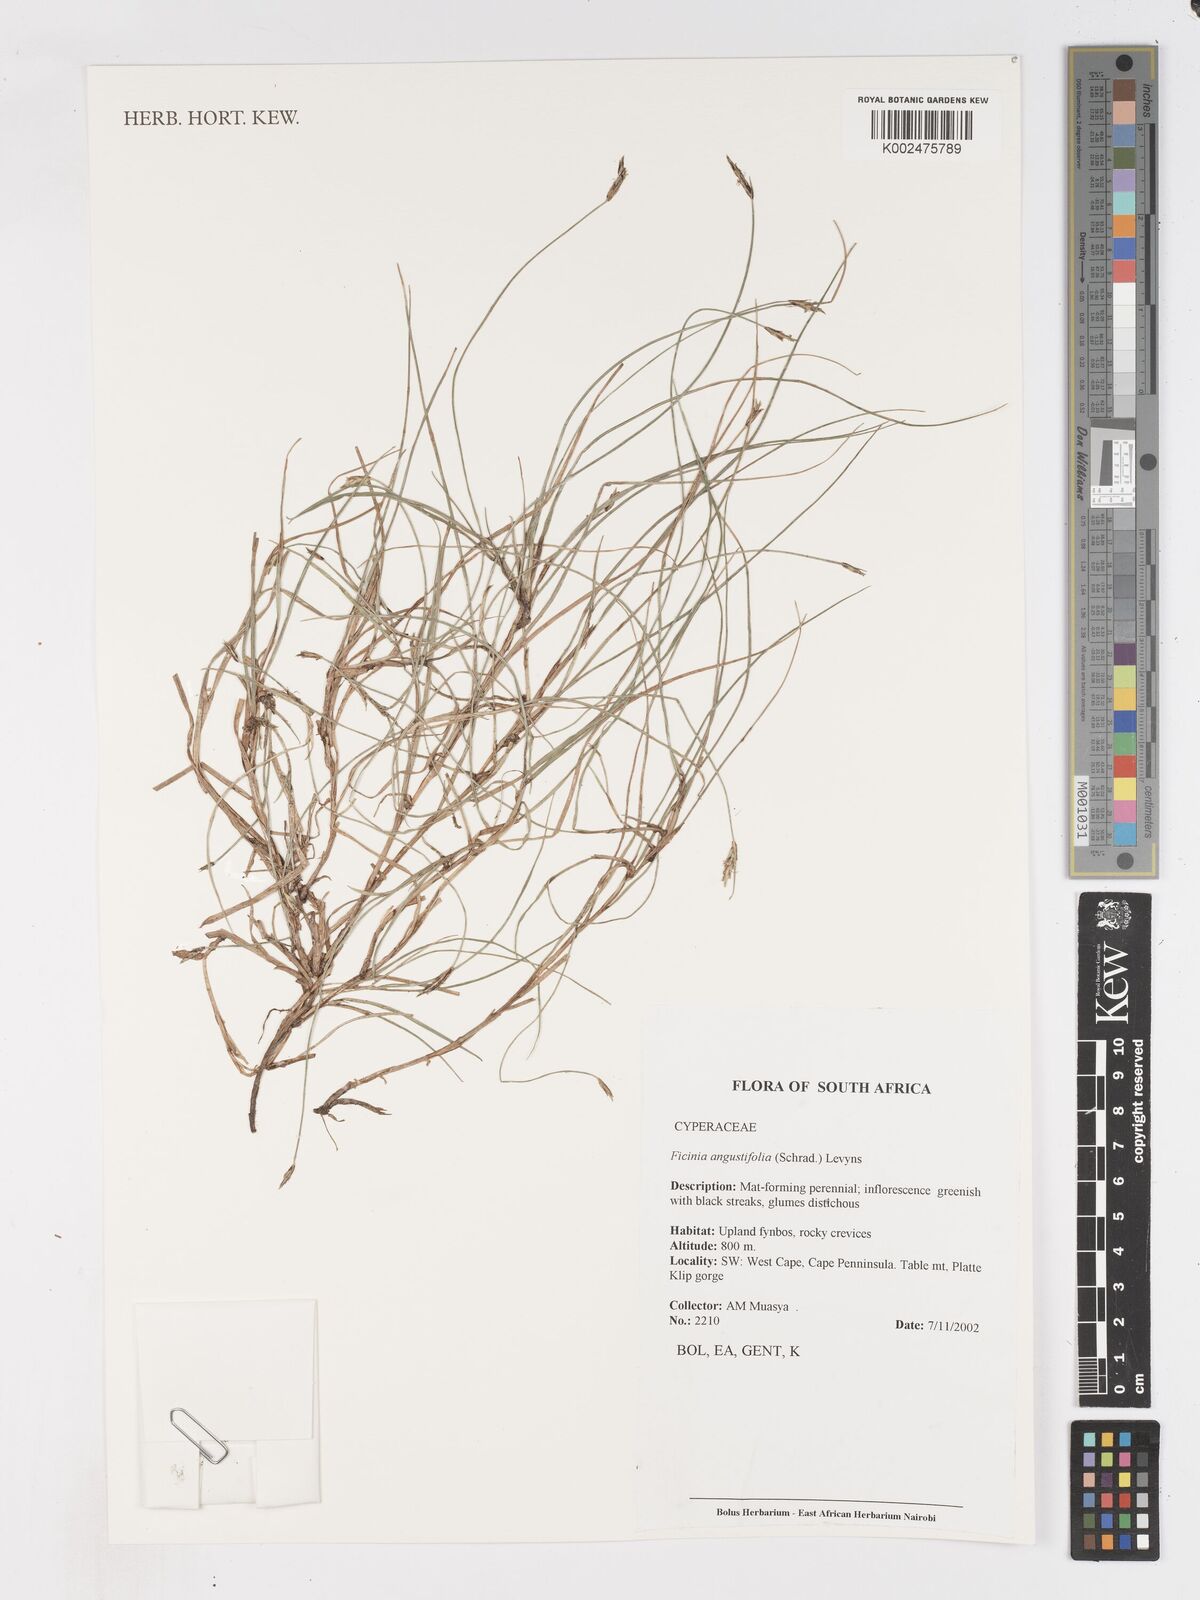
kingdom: Plantae
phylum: Tracheophyta
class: Liliopsida
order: Poales
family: Cyperaceae
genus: Ficinia
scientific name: Ficinia angustifolia
